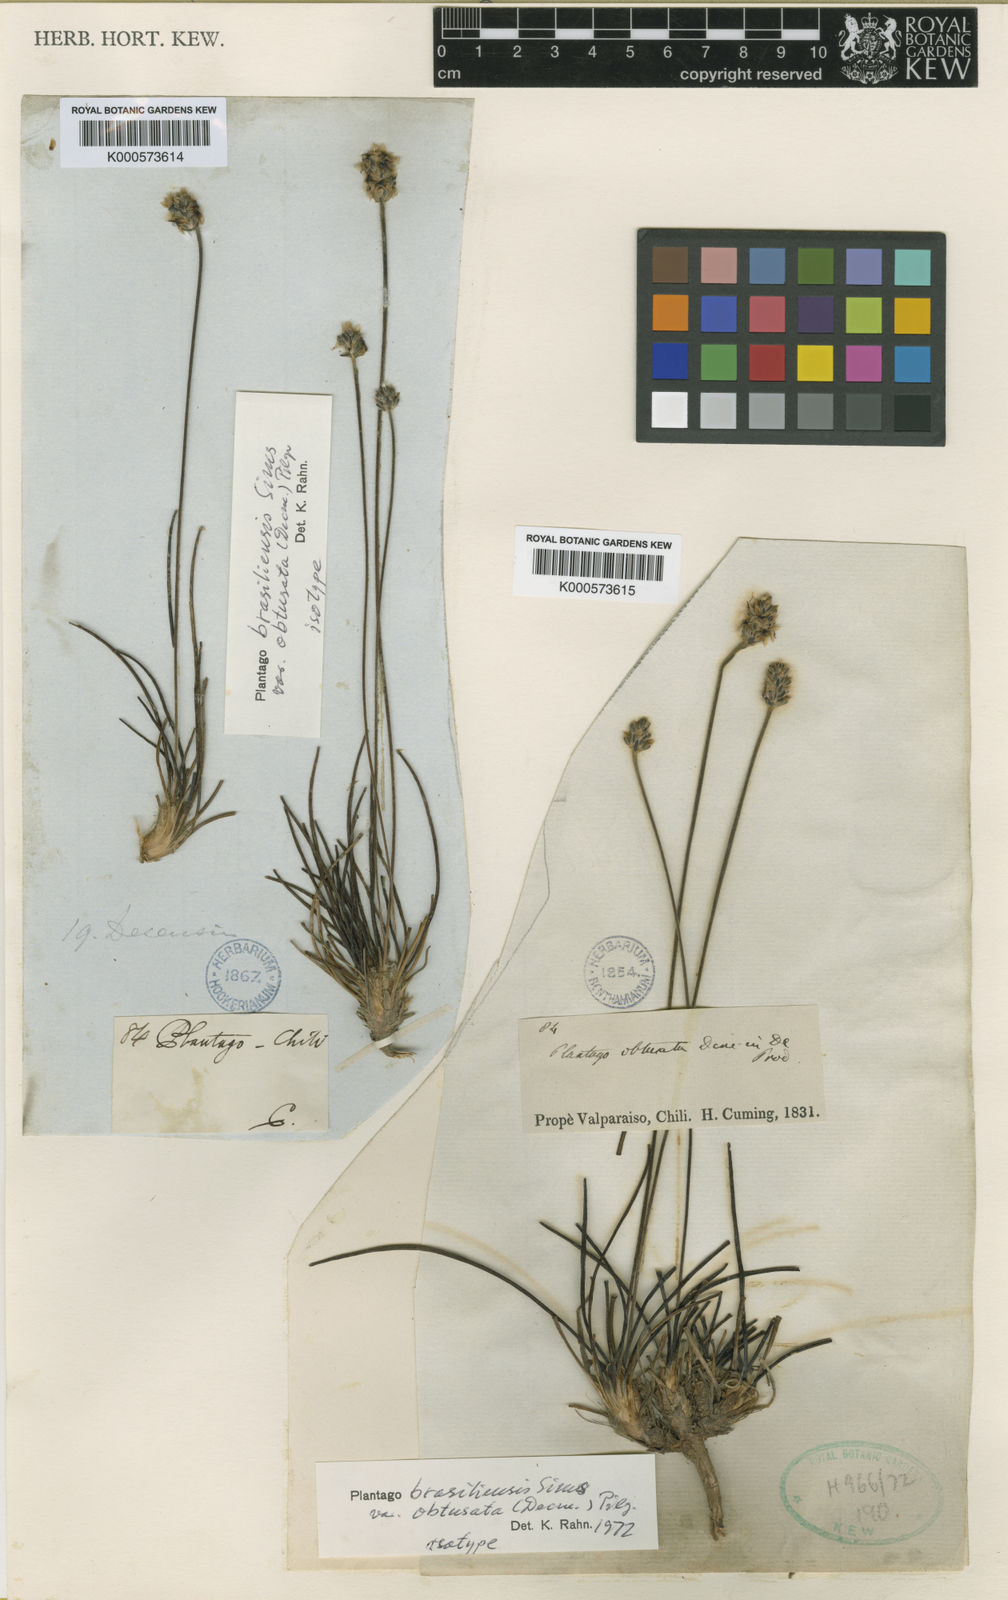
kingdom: Plantae
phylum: Tracheophyta
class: Magnoliopsida
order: Lamiales
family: Plantaginaceae
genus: Plantago
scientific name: Plantago brasiliensis
